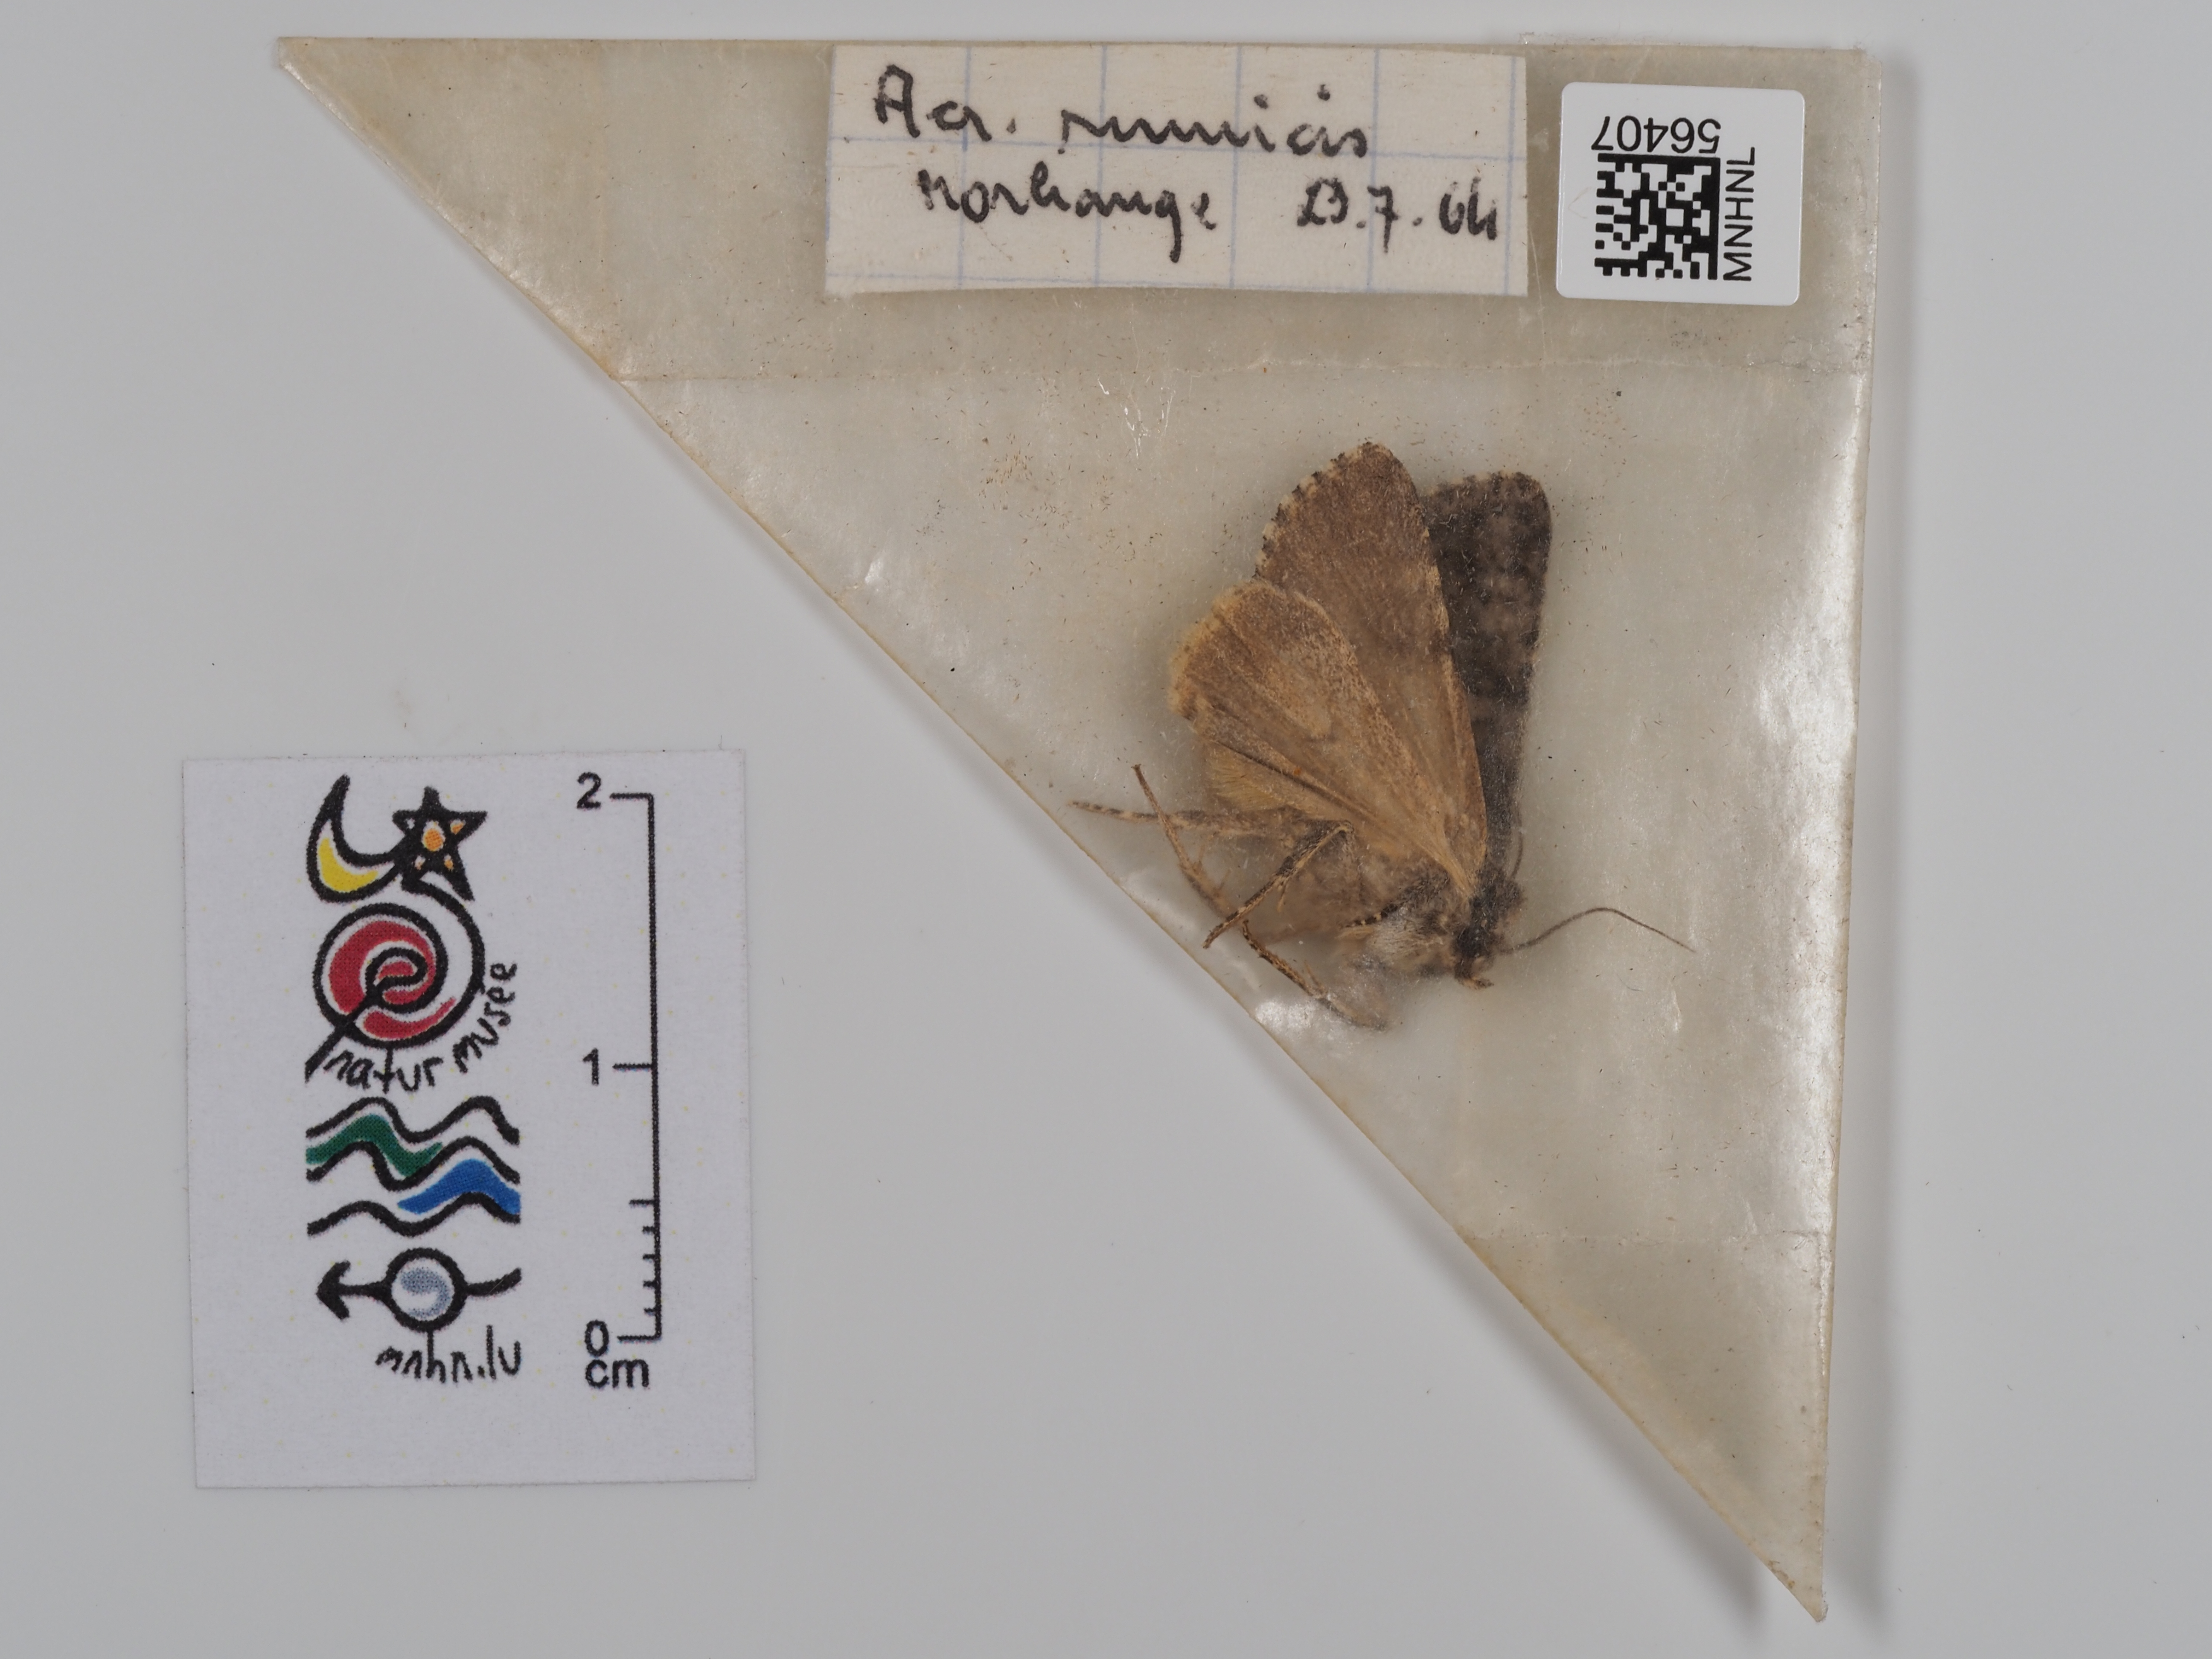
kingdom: Animalia
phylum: Arthropoda
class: Insecta
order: Lepidoptera
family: Noctuidae
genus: Acronicta
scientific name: Acronicta rumicis
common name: Knot grass
